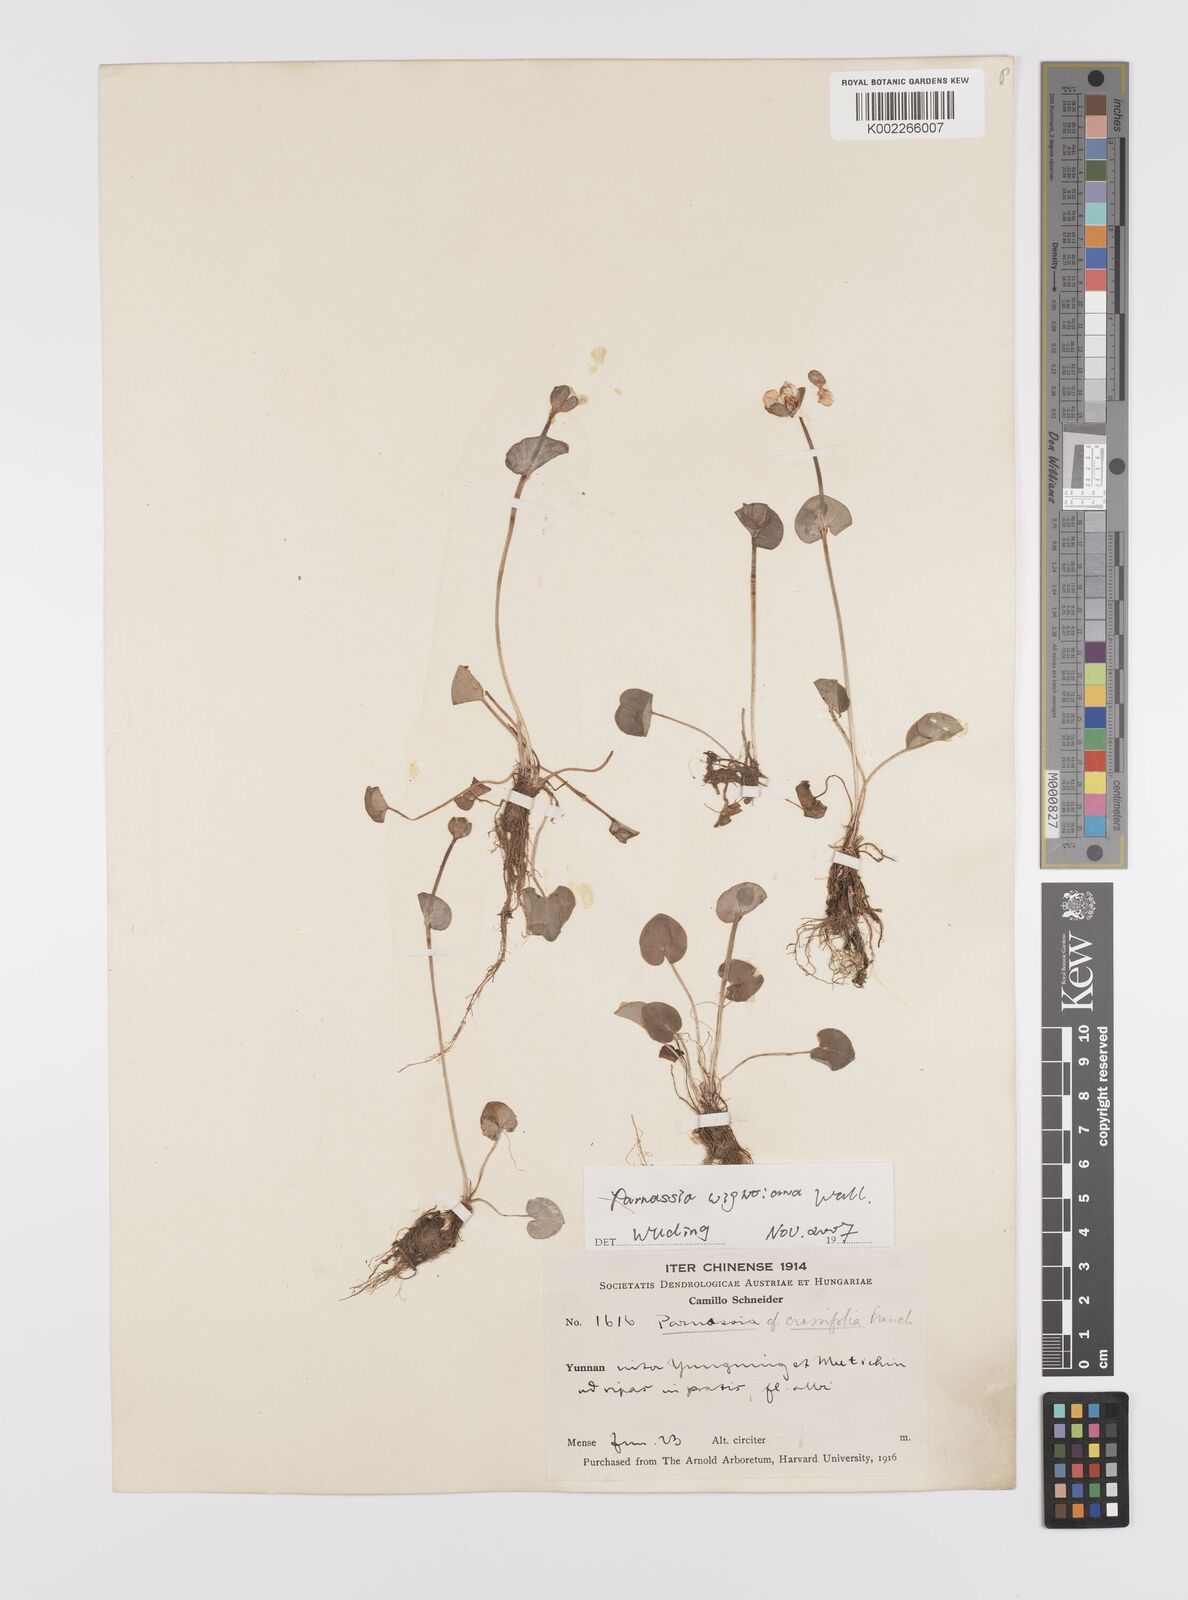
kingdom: Plantae
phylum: Tracheophyta
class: Magnoliopsida
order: Celastrales
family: Parnassiaceae
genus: Parnassia
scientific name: Parnassia wightiana
